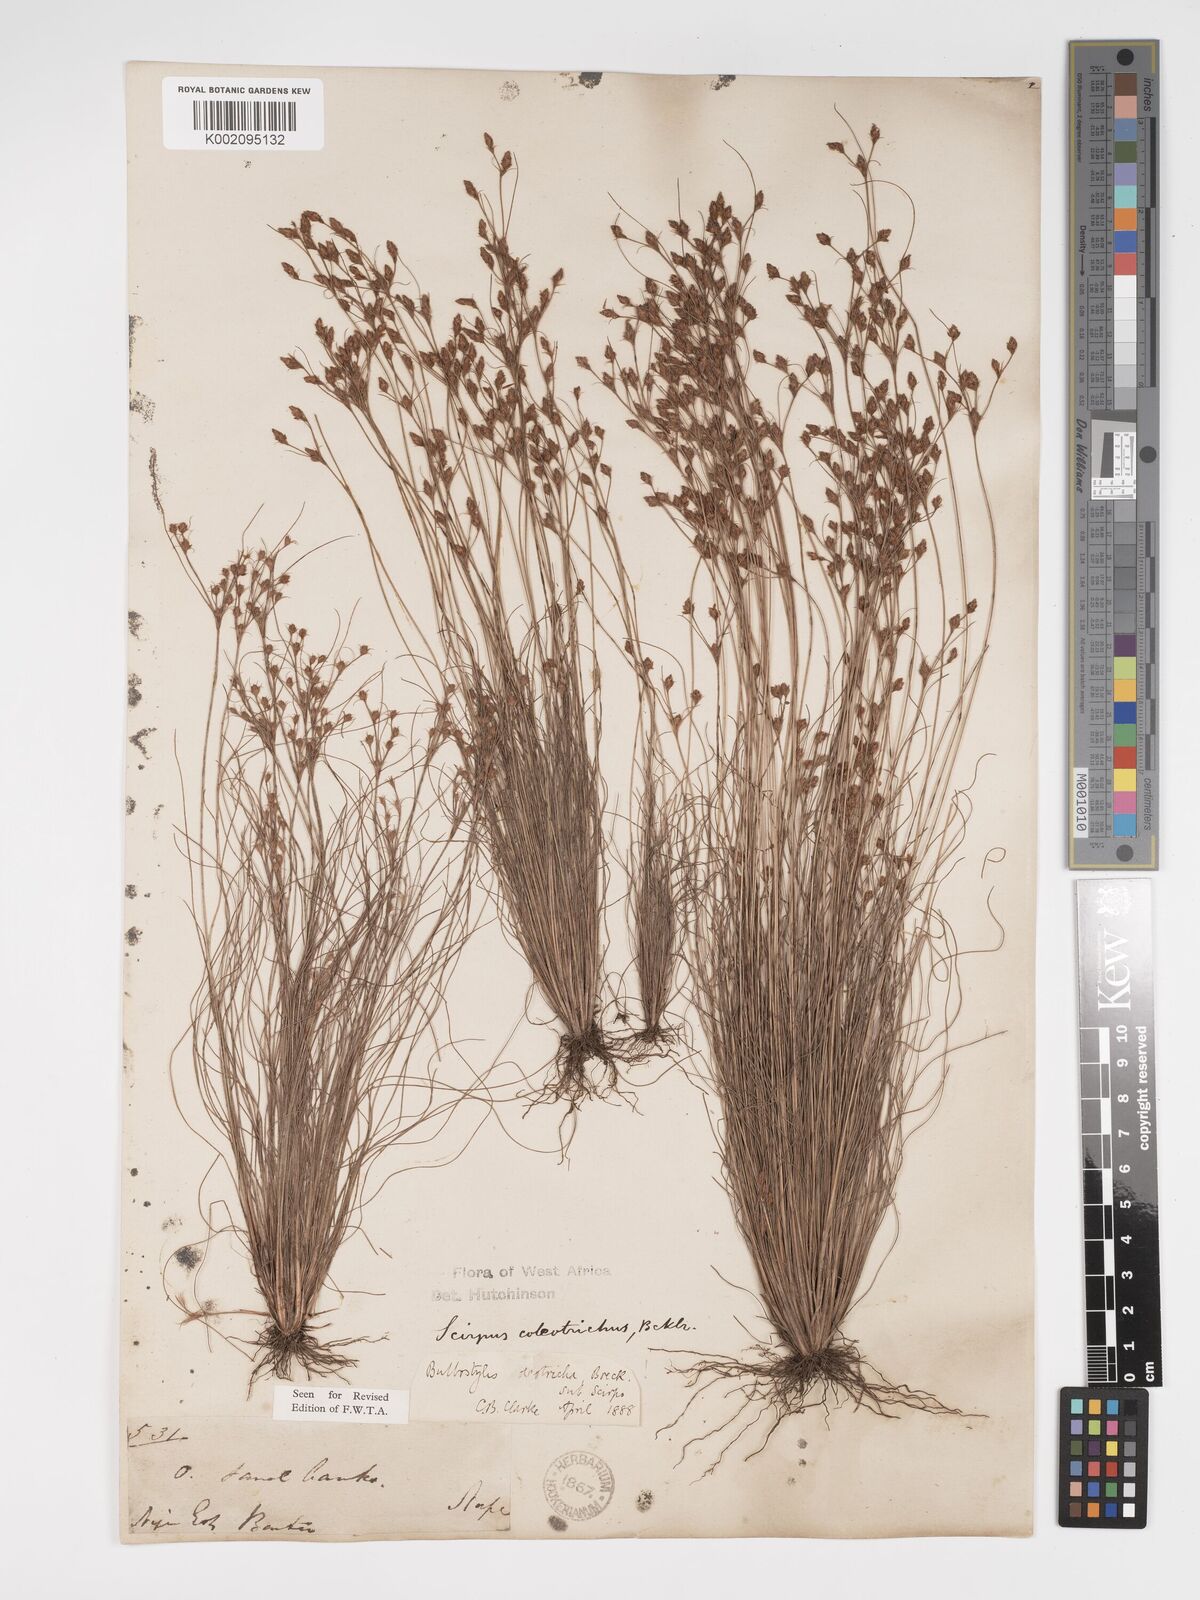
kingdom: Plantae
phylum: Tracheophyta
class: Liliopsida
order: Poales
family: Cyperaceae
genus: Bulbostylis
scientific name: Bulbostylis coleotricha
